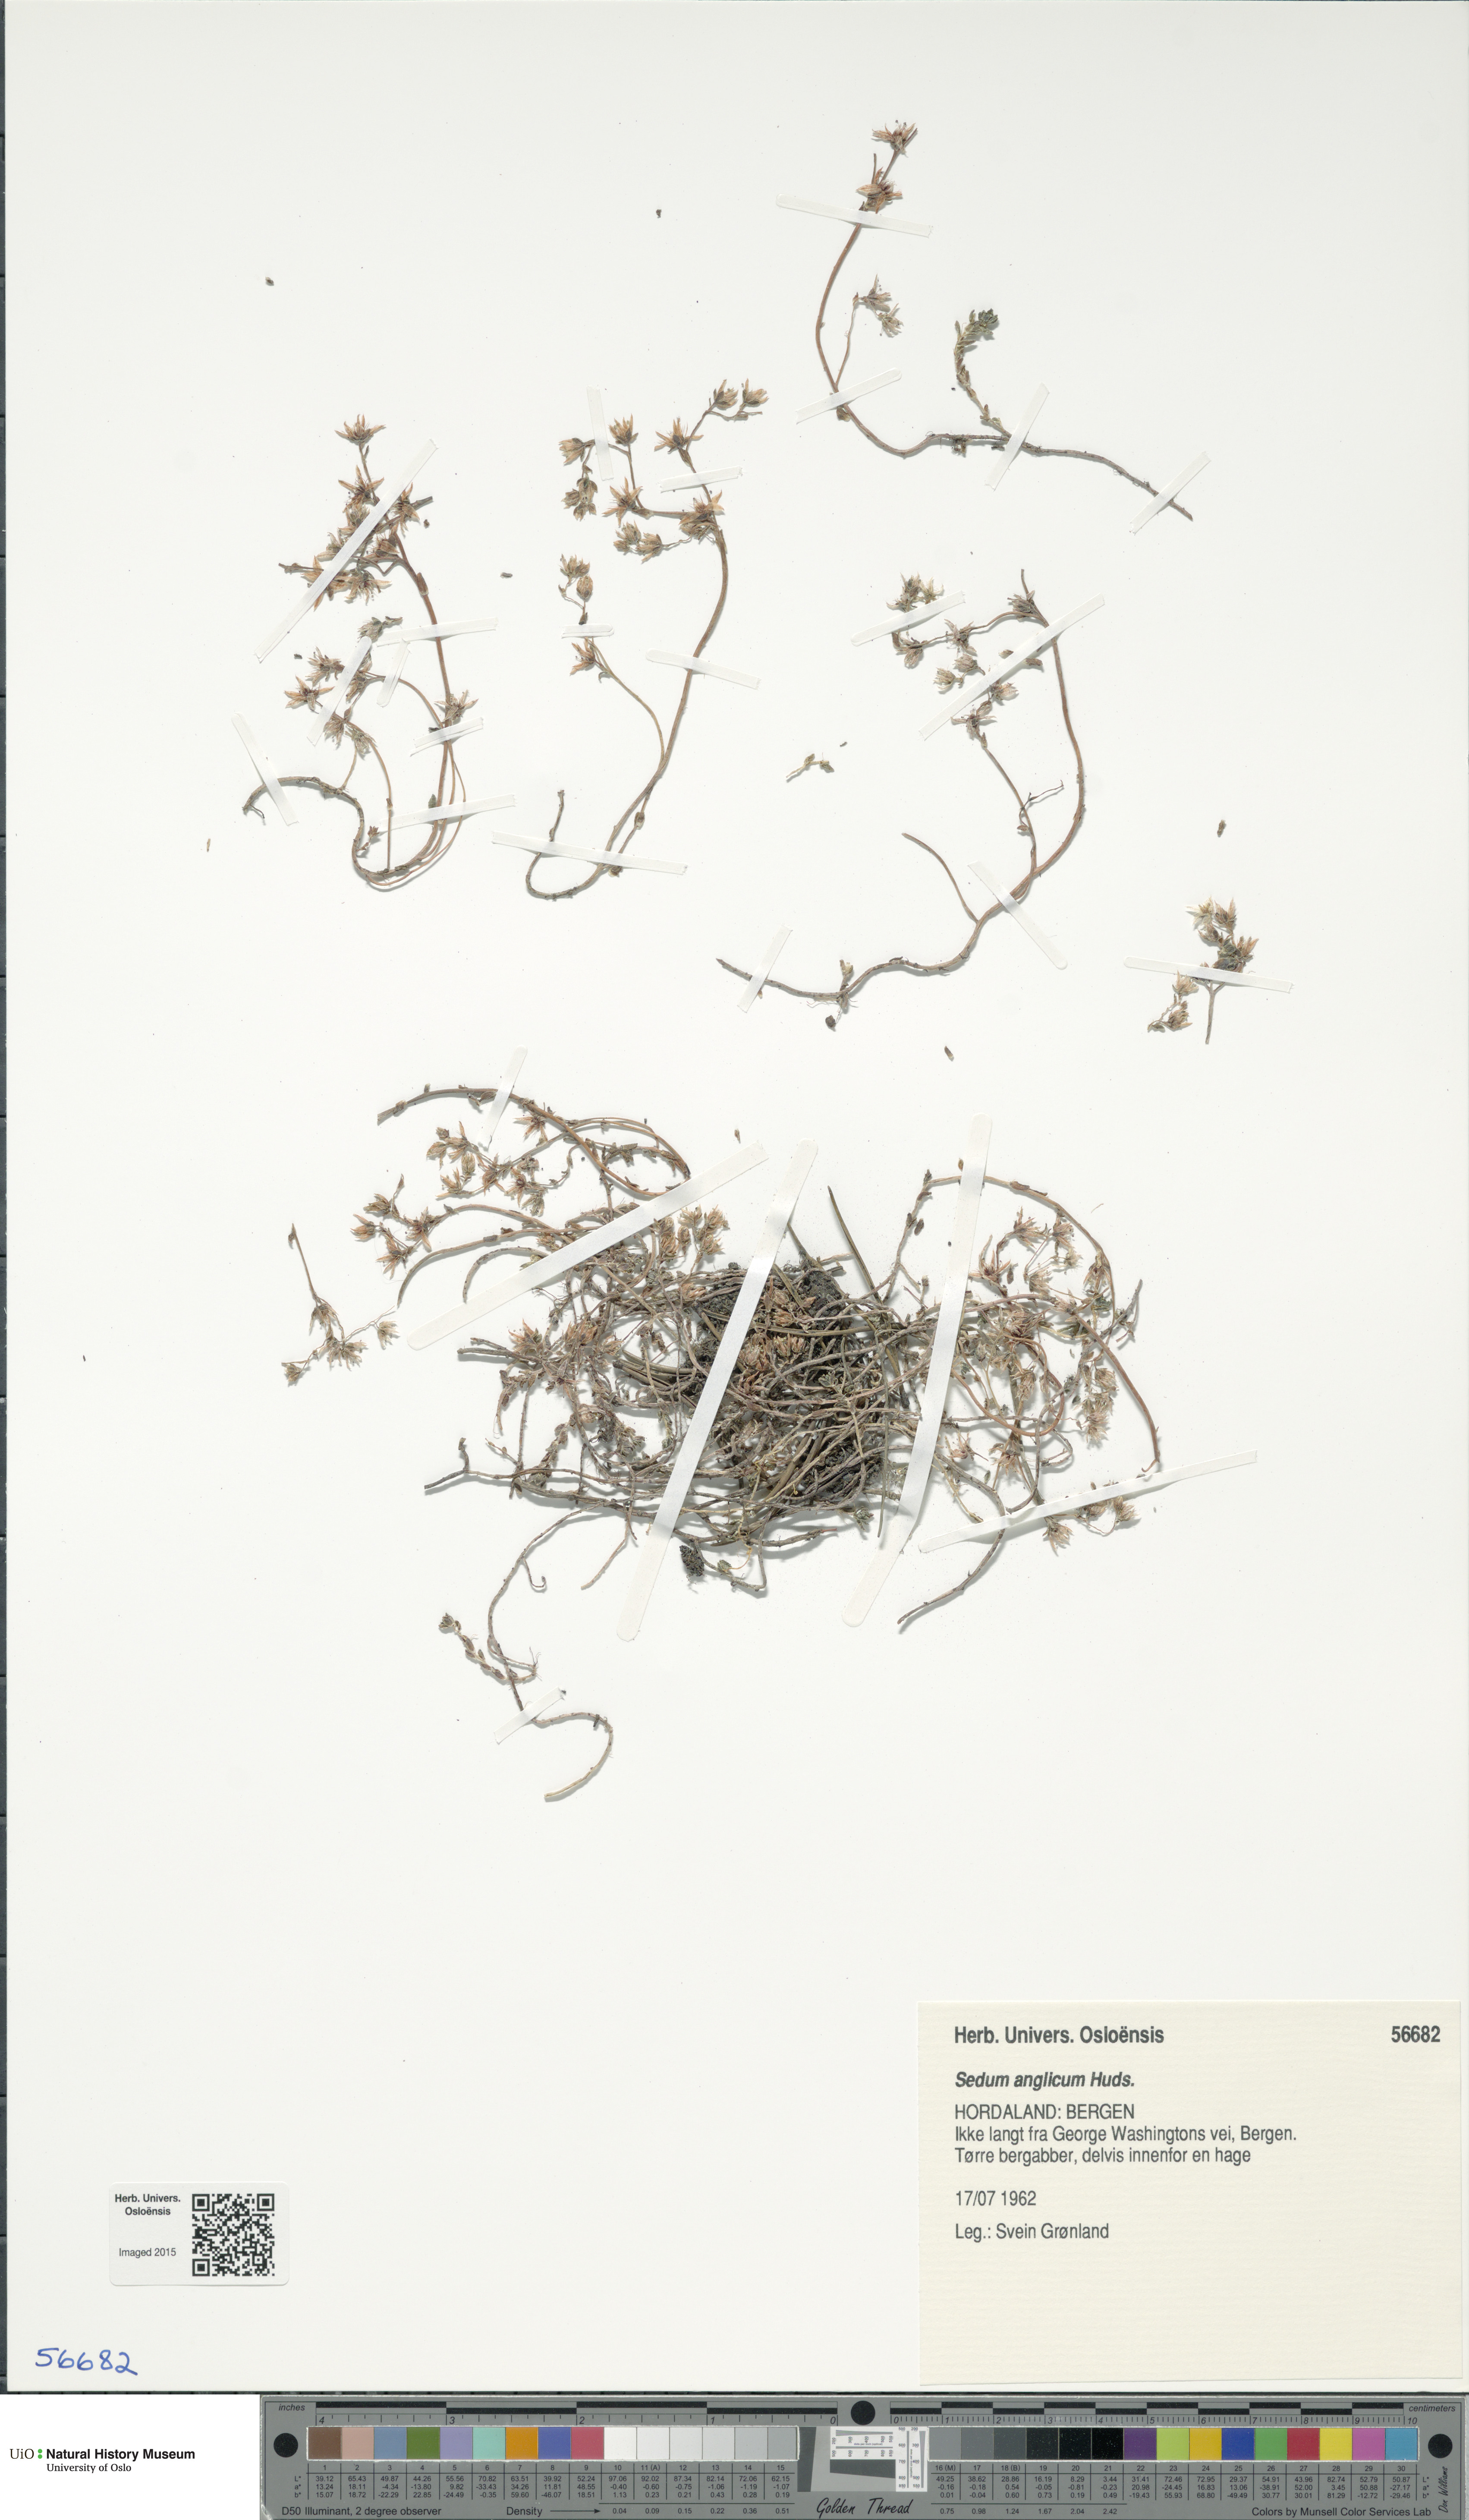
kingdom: Plantae
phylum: Tracheophyta
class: Magnoliopsida
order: Saxifragales
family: Crassulaceae
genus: Sedum
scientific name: Sedum anglicum
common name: English stonecrop
